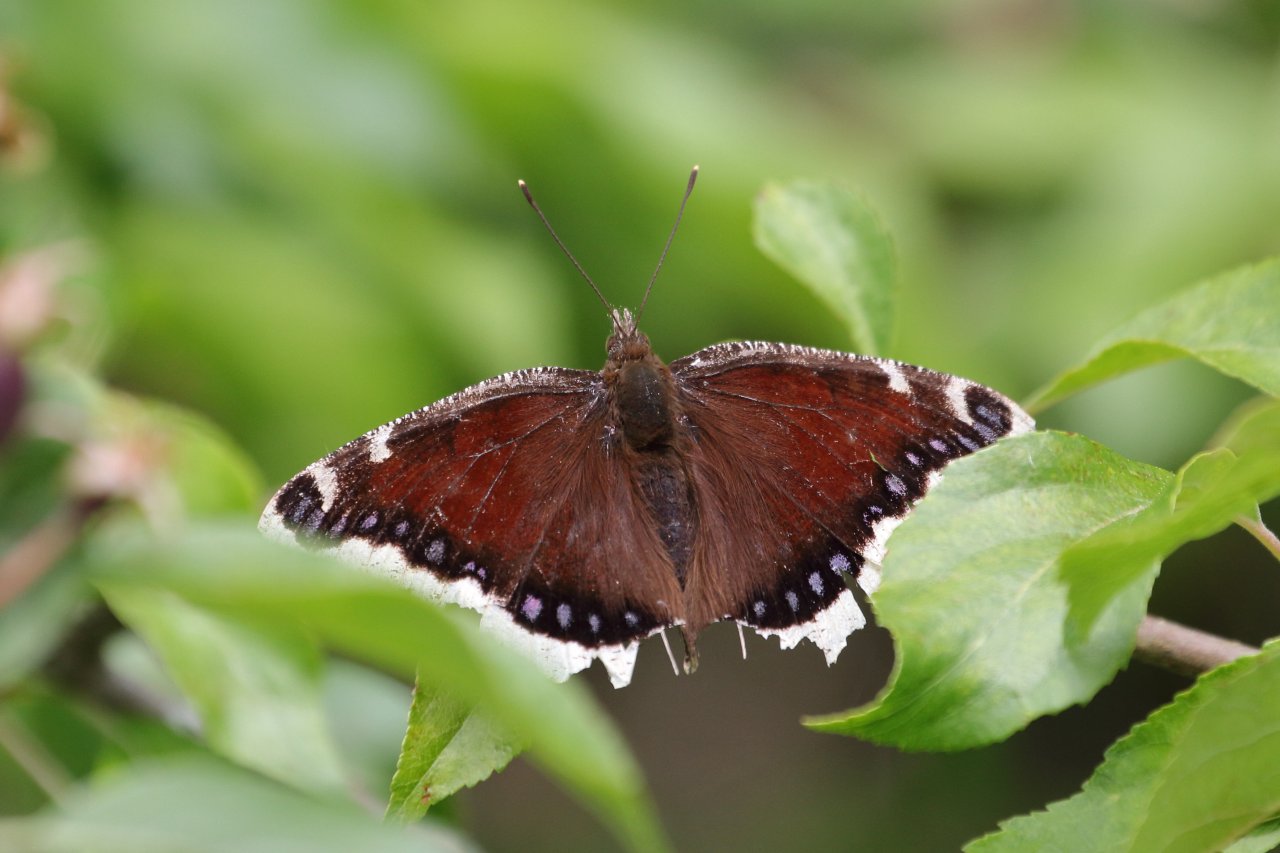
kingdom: Animalia
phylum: Arthropoda
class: Insecta
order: Lepidoptera
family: Nymphalidae
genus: Nymphalis
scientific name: Nymphalis antiopa
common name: Mourning Cloak
